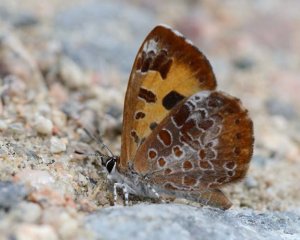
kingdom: Animalia
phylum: Arthropoda
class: Insecta
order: Lepidoptera
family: Lycaenidae
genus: Feniseca
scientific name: Feniseca tarquinius
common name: Harvester
